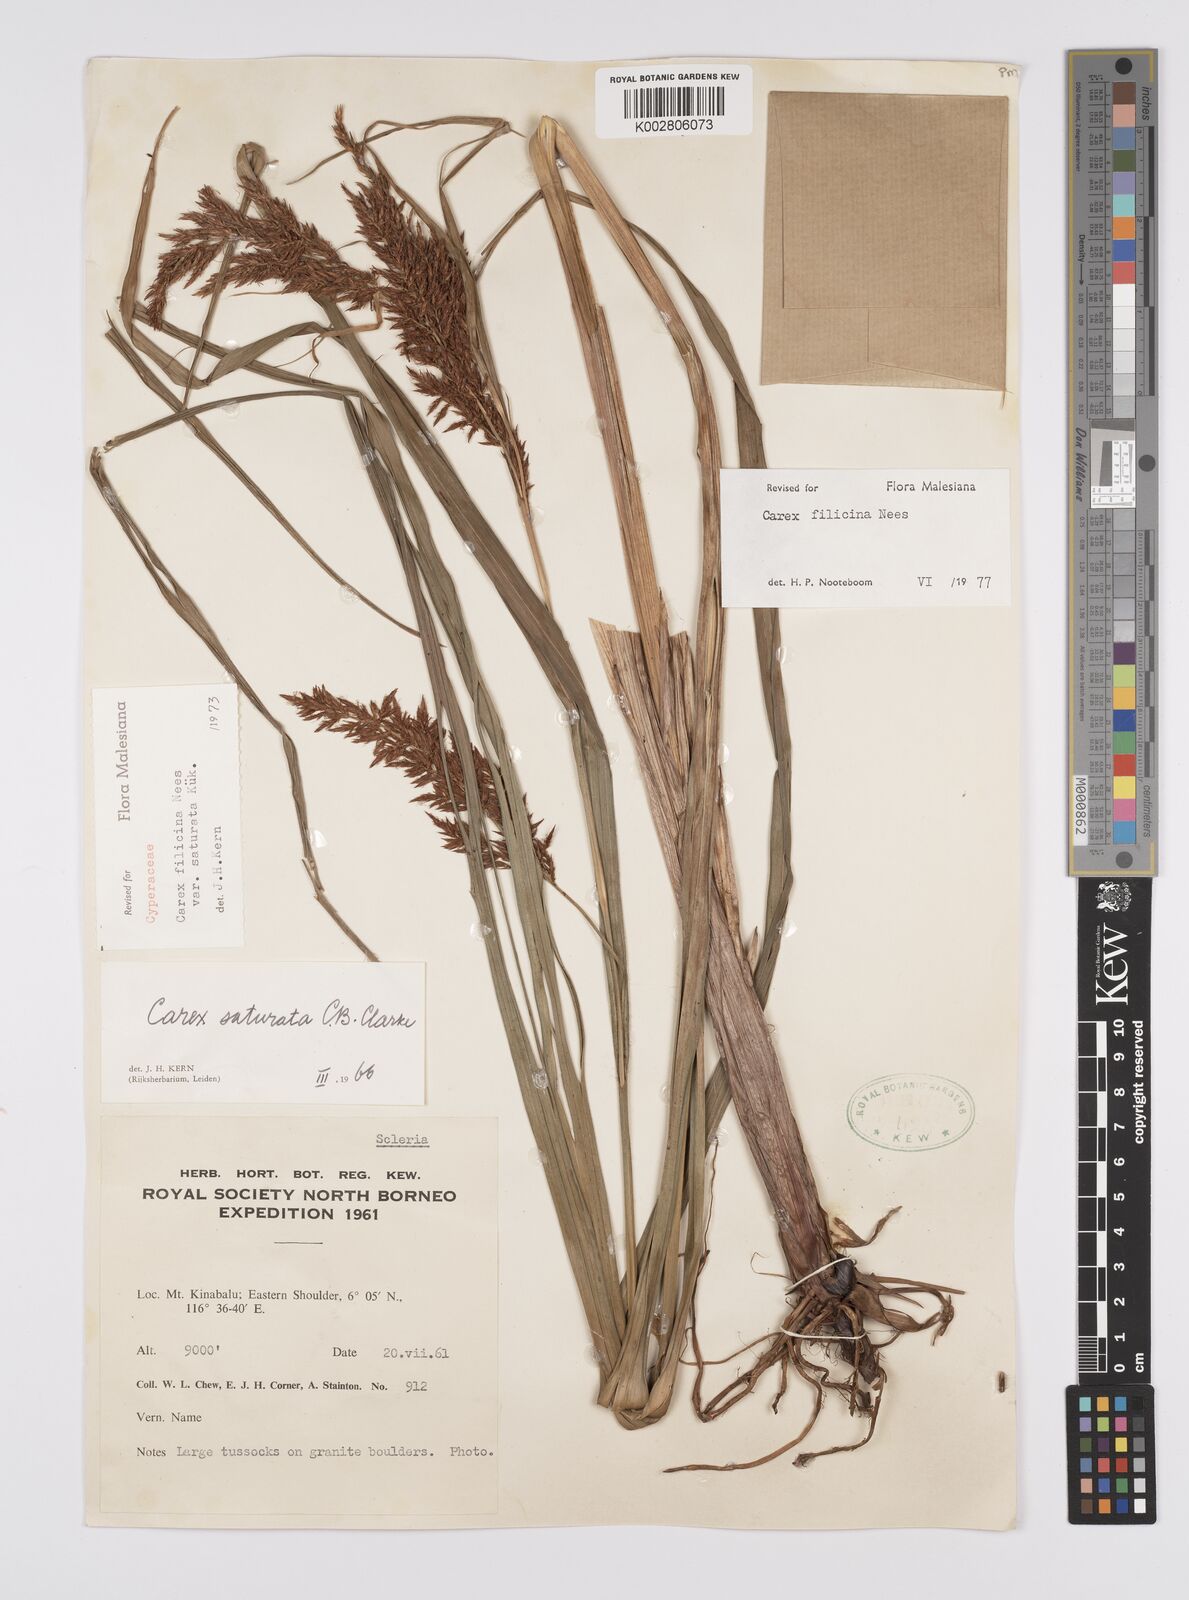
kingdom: Plantae
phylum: Tracheophyta
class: Liliopsida
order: Poales
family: Cyperaceae
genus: Carex
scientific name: Carex filicina
